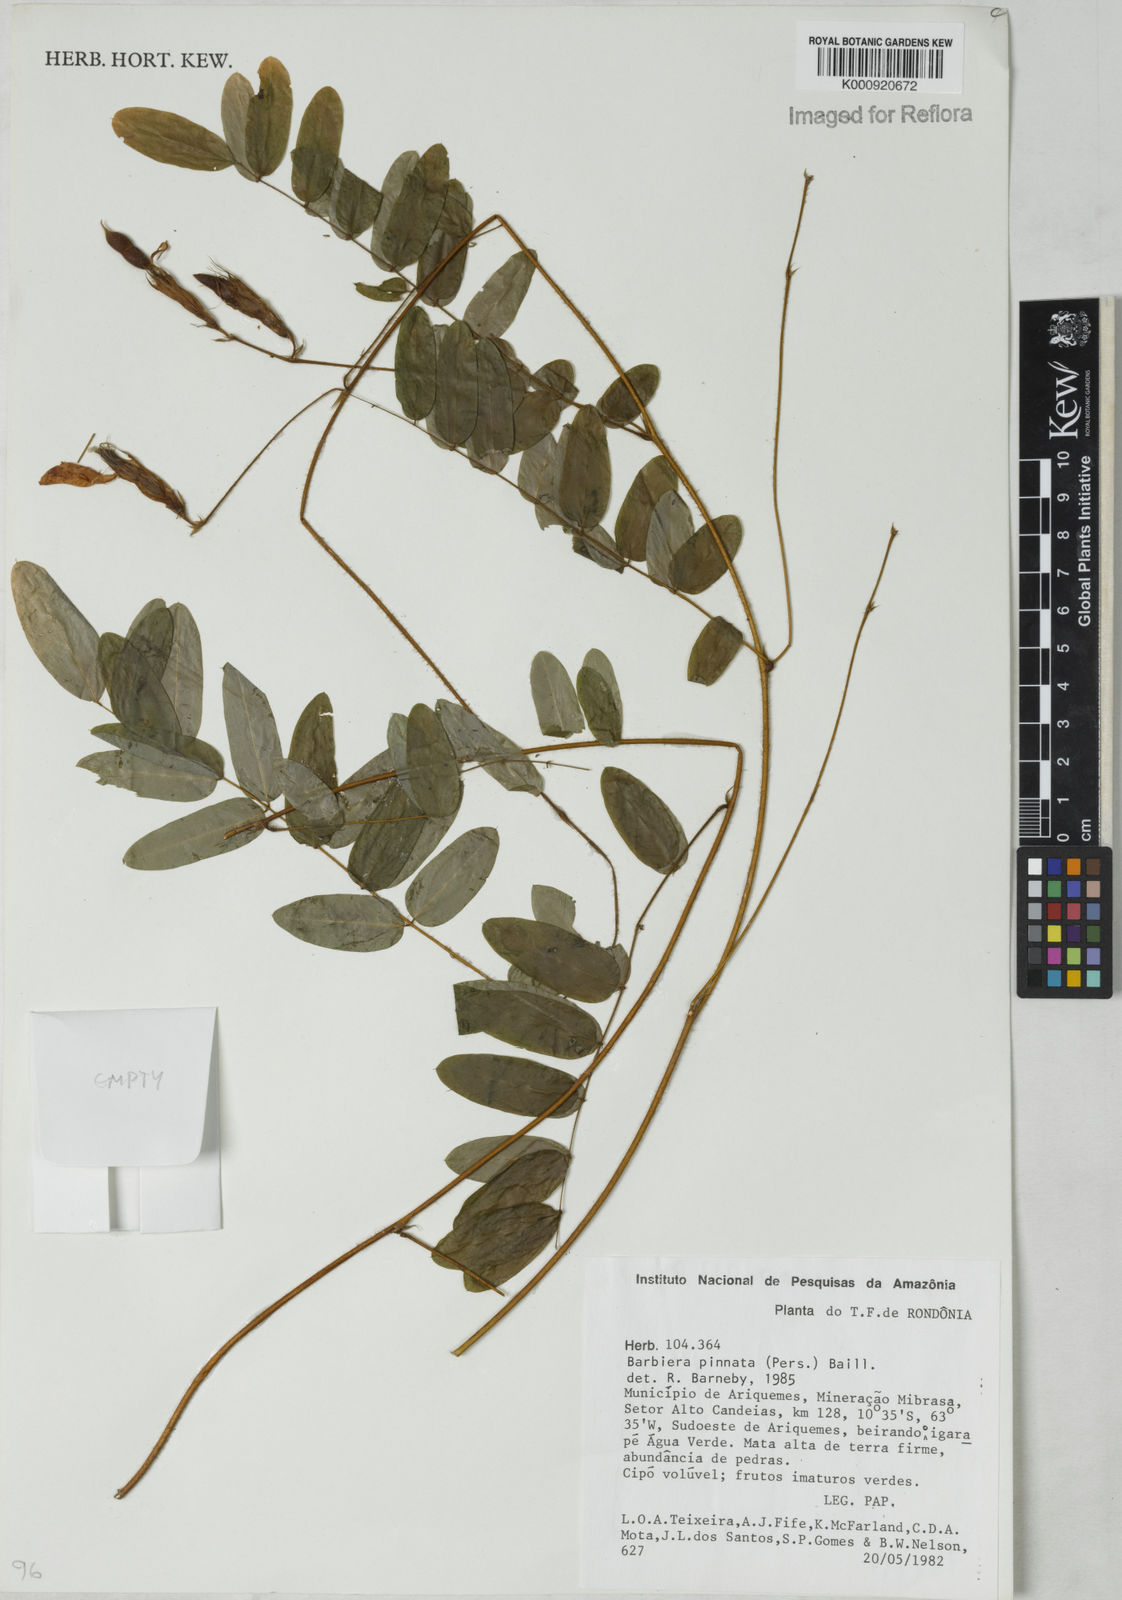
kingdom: Plantae
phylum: Tracheophyta
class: Magnoliopsida
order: Fabales
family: Fabaceae
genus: Barbieria
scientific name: Barbieria pinnata
